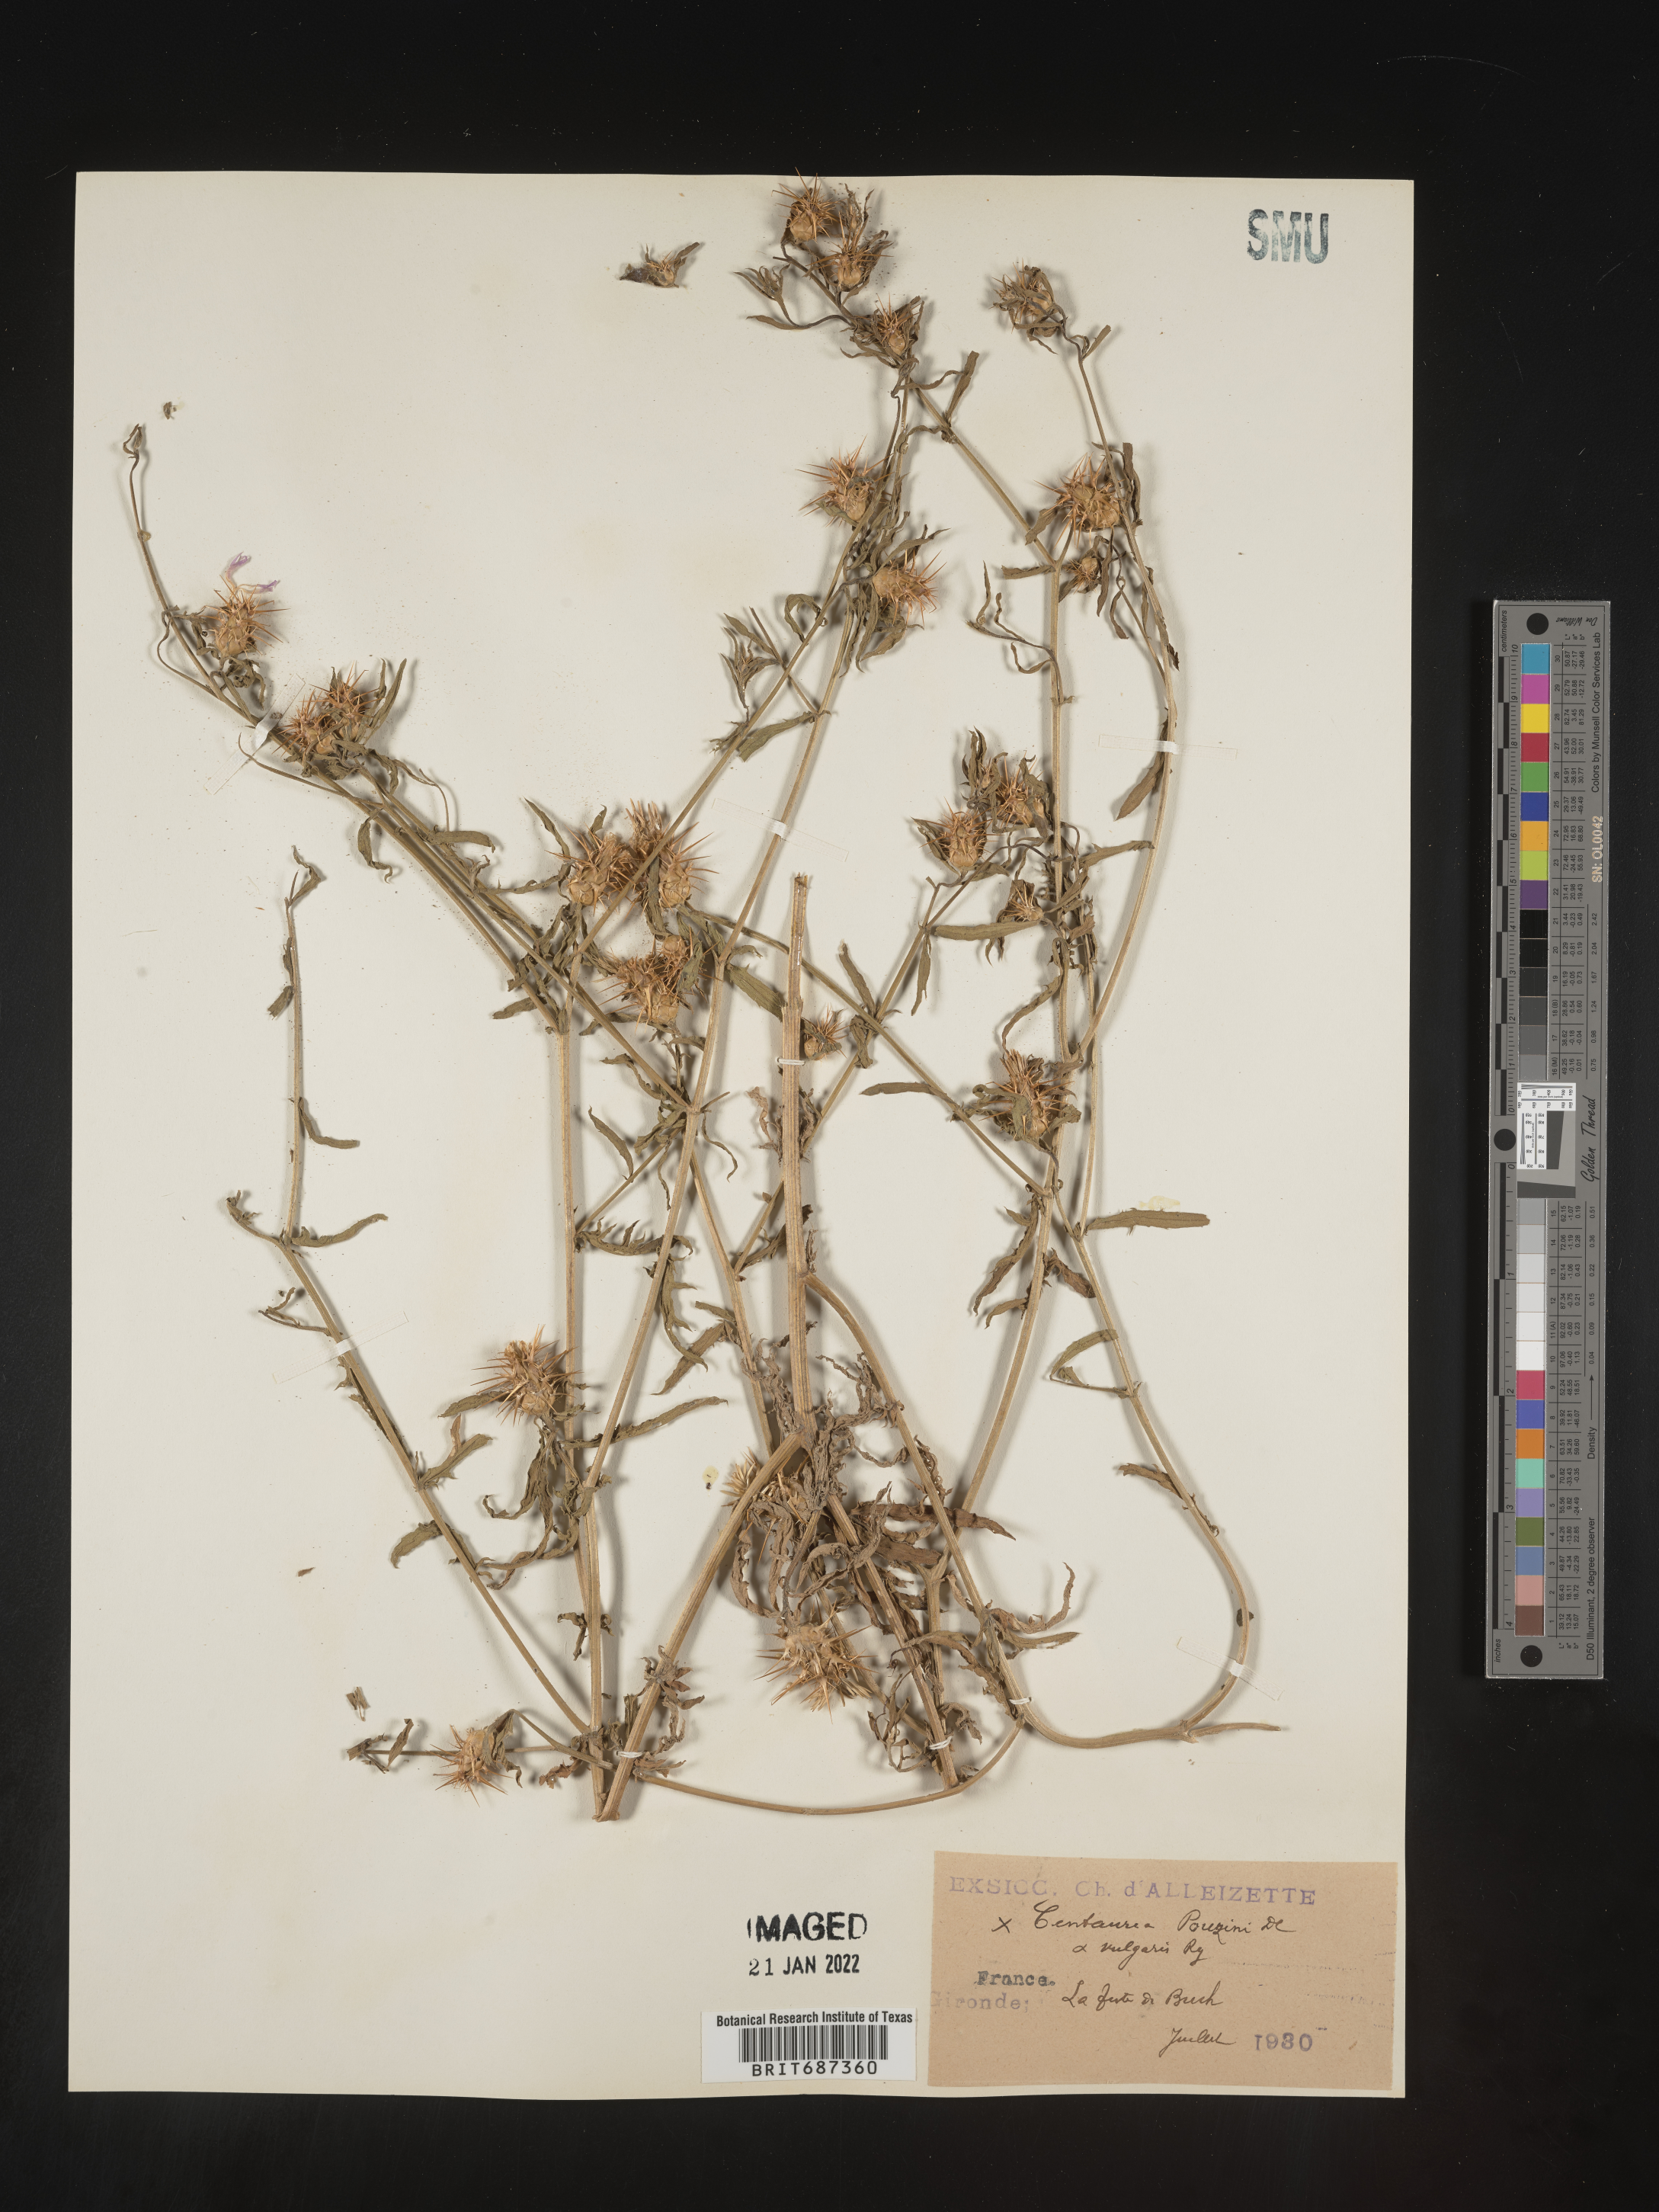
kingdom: Plantae
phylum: Tracheophyta
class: Magnoliopsida
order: Asterales
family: Asteraceae
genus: Centaurea
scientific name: Centaurea
